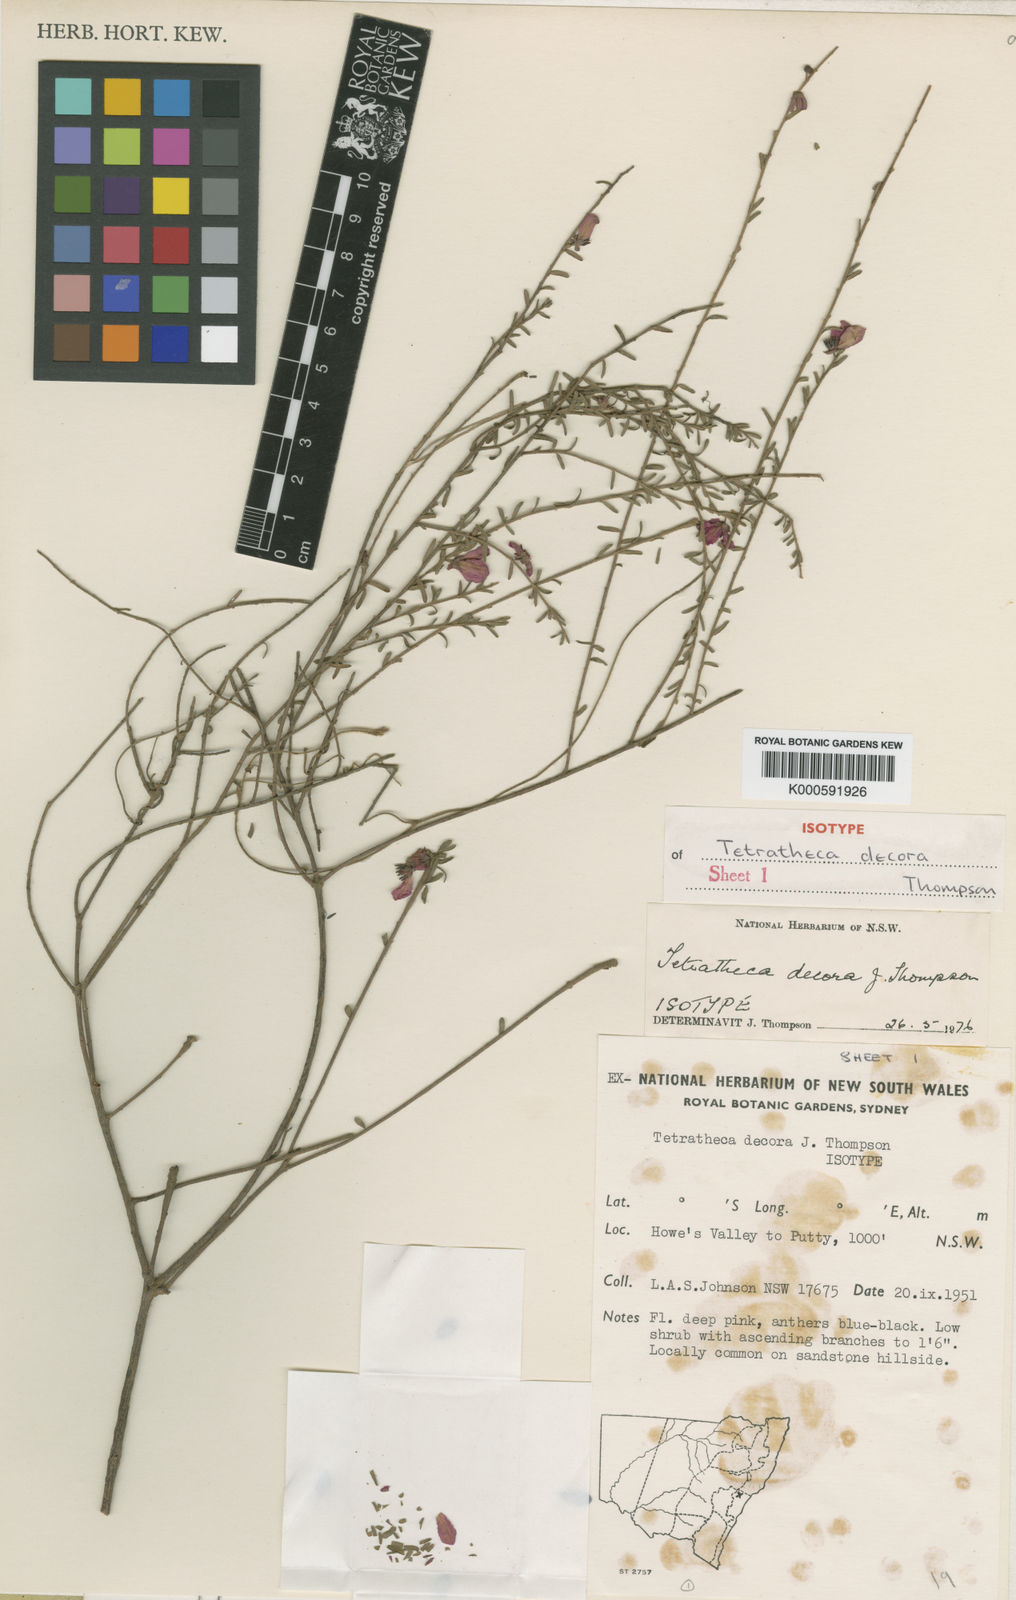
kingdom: Plantae
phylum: Tracheophyta
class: Magnoliopsida
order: Oxalidales
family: Elaeocarpaceae
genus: Tetratheca
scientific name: Tetratheca decora
